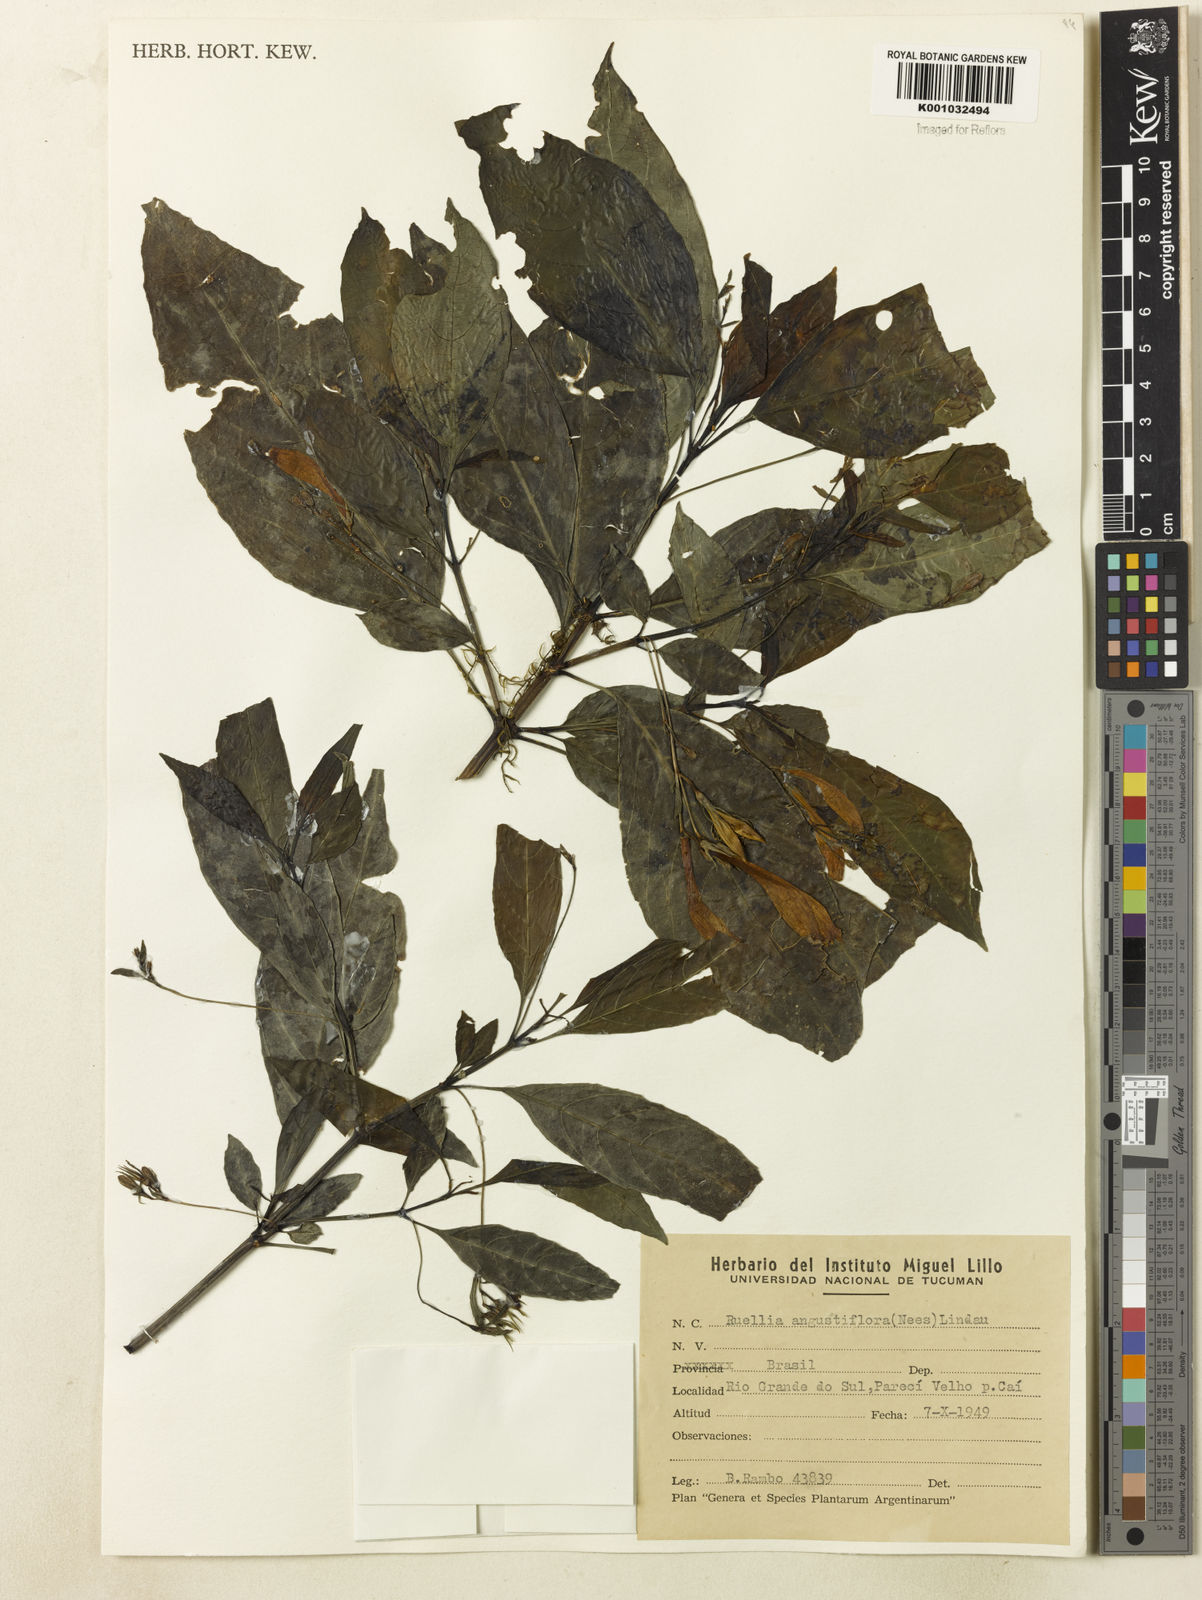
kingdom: Plantae
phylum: Tracheophyta
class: Magnoliopsida
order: Lamiales
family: Acanthaceae
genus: Ruellia
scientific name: Ruellia angustiflora
